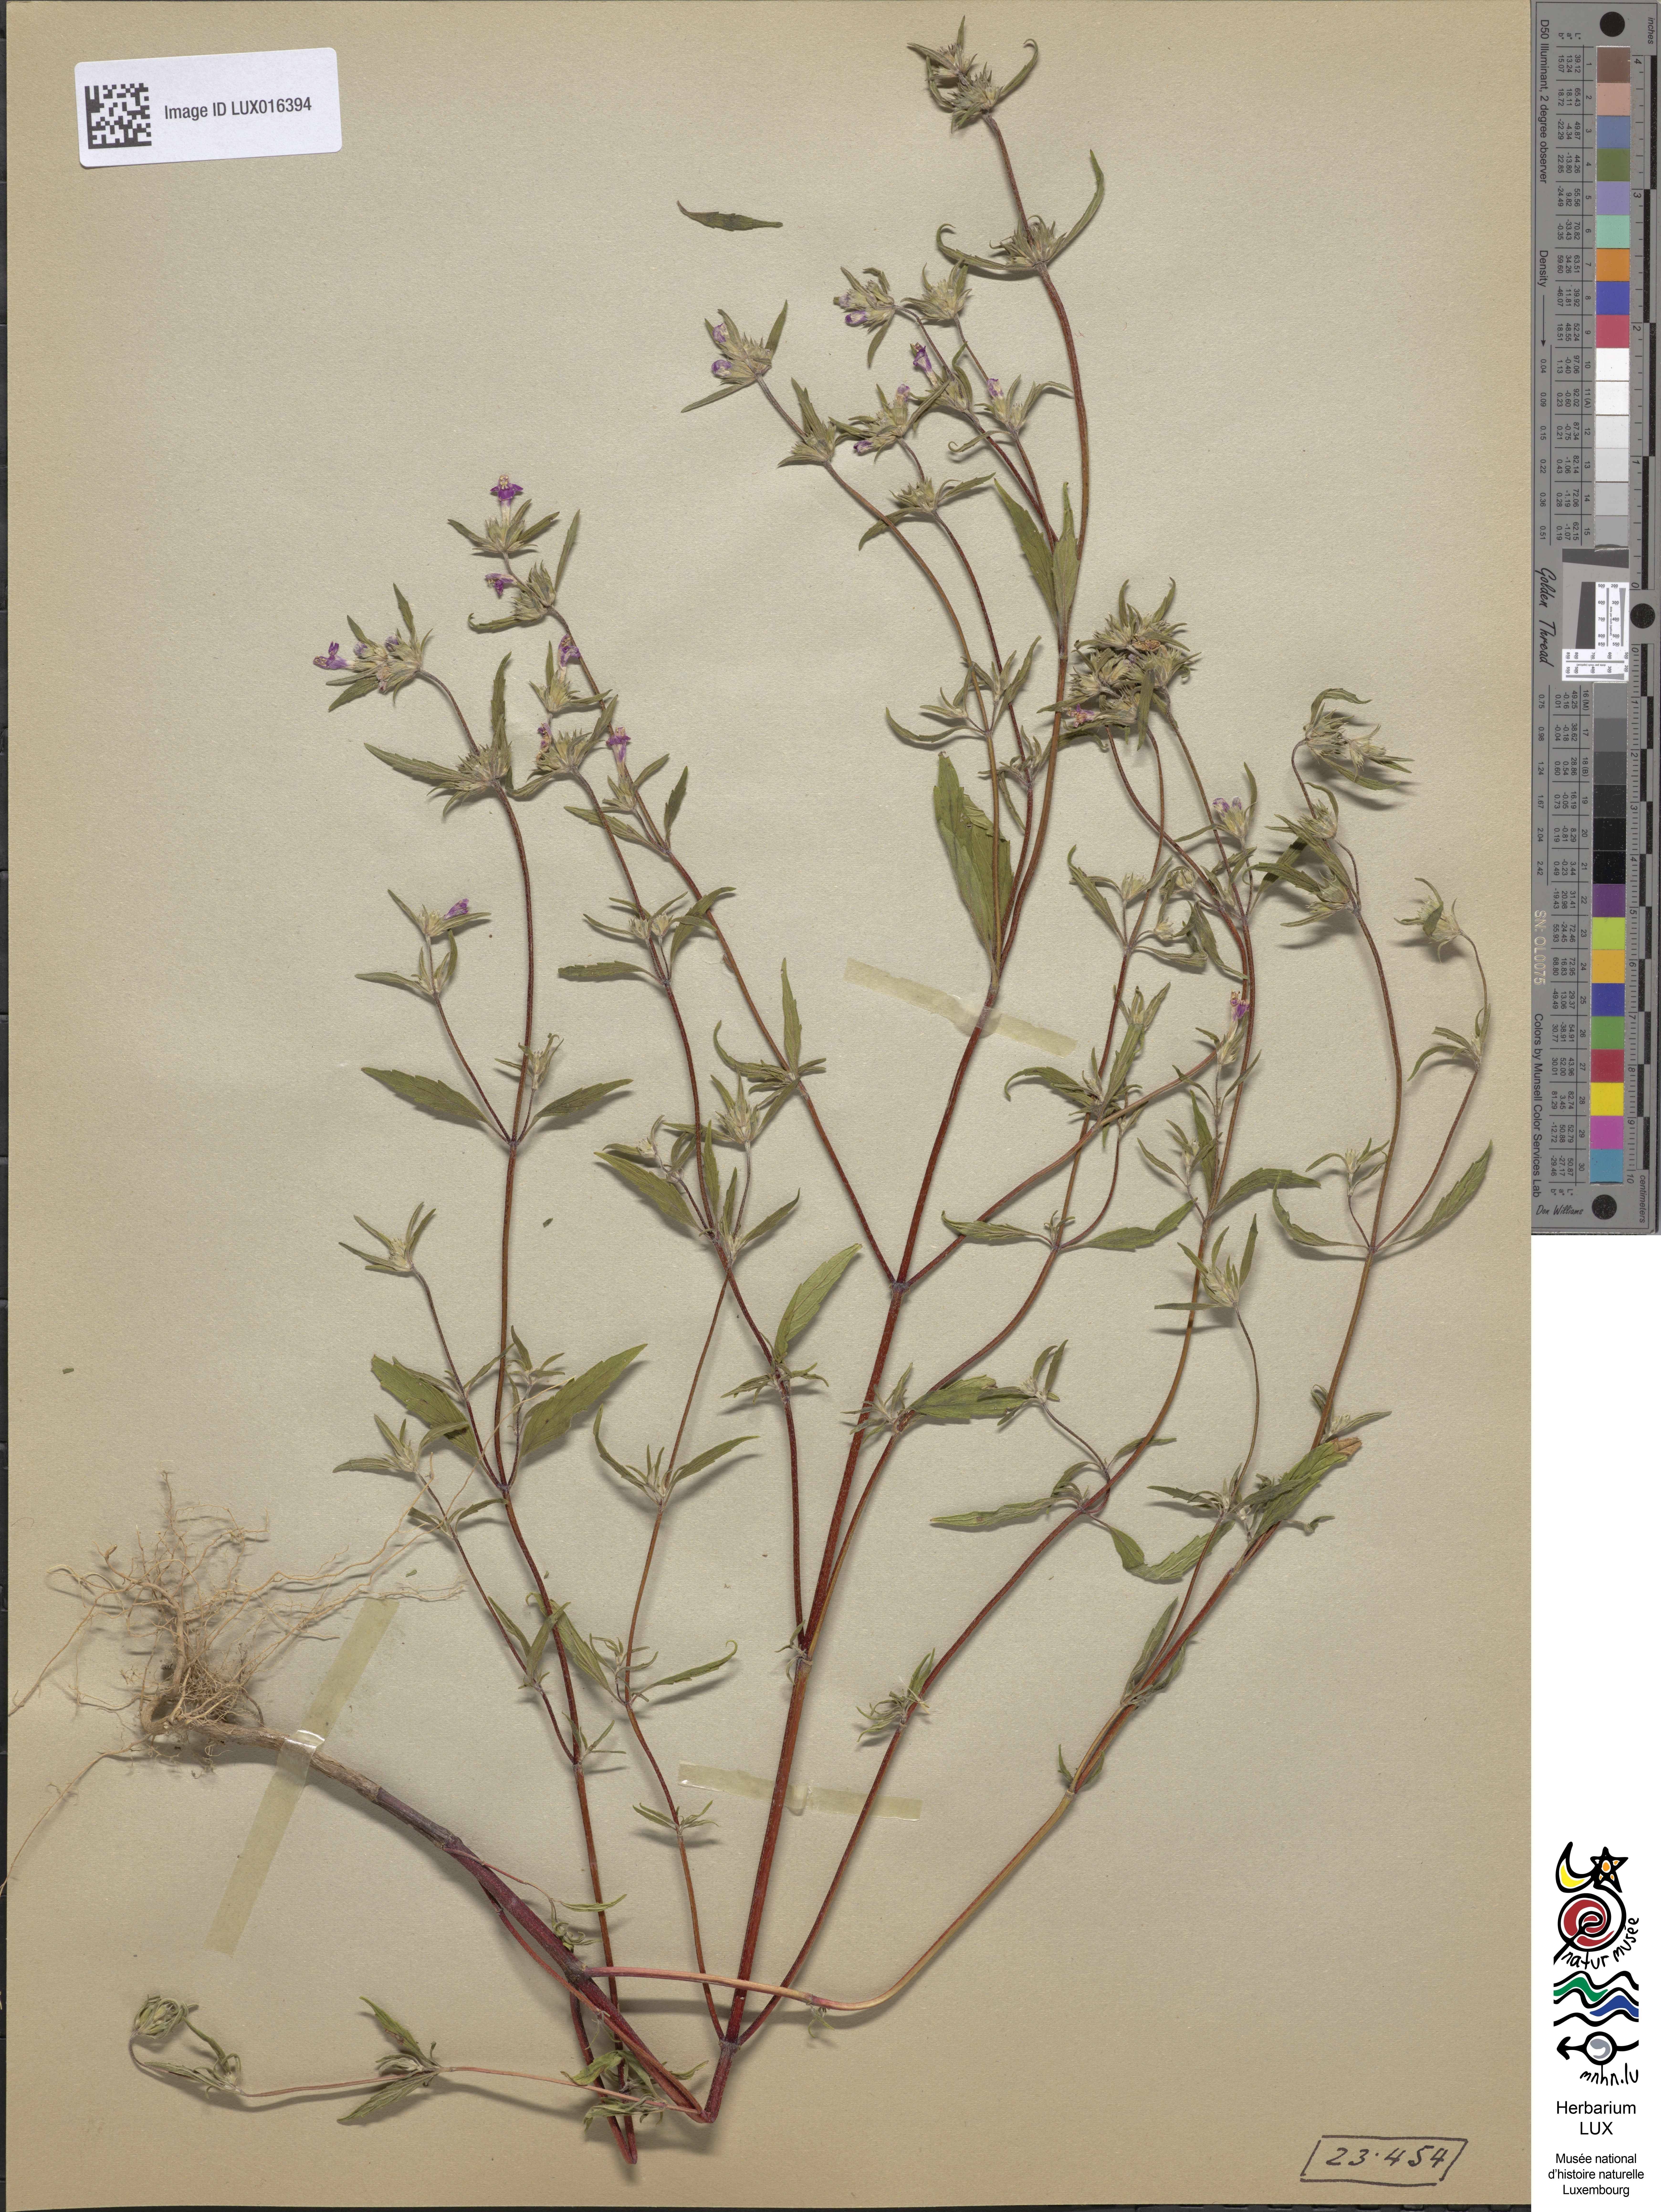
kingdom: Plantae
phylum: Tracheophyta
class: Magnoliopsida
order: Lamiales
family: Lamiaceae
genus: Galeopsis
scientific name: Galeopsis angustifolia
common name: Red hemp-nettle
